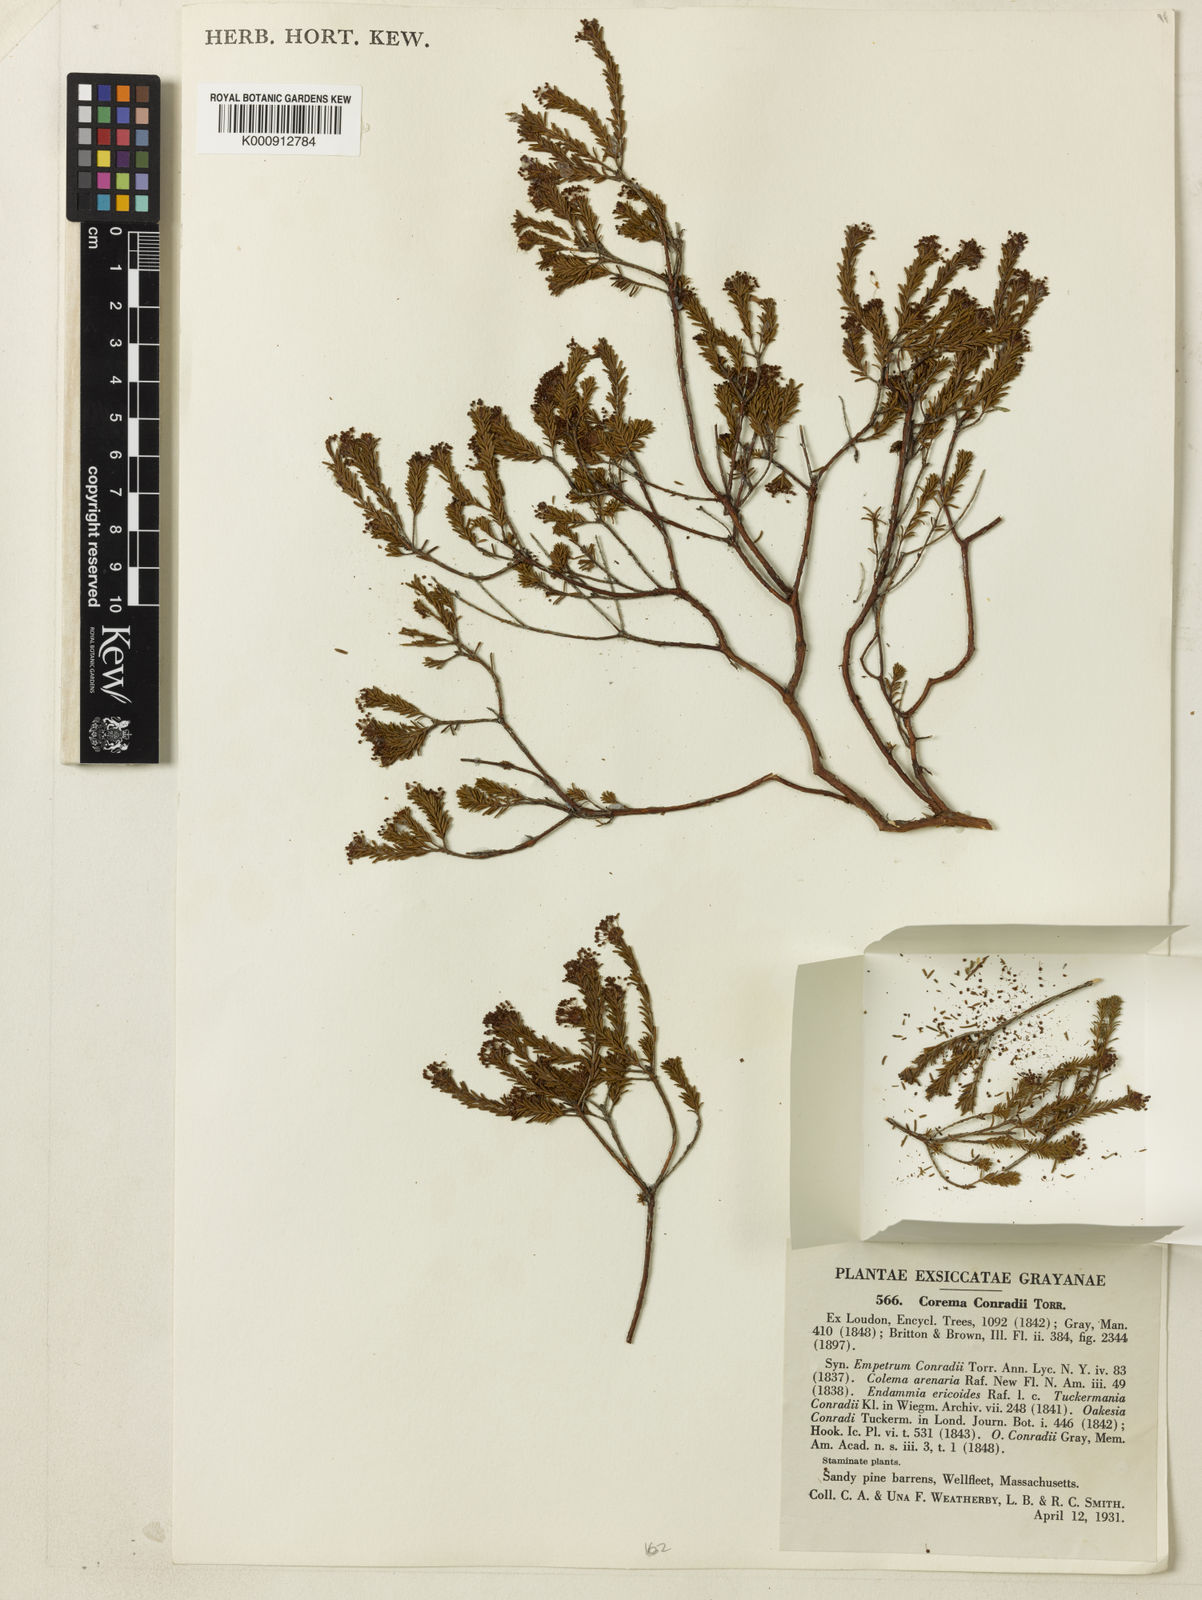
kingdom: Plantae
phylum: Tracheophyta
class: Magnoliopsida
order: Ericales
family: Ericaceae
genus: Corema
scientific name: Corema
